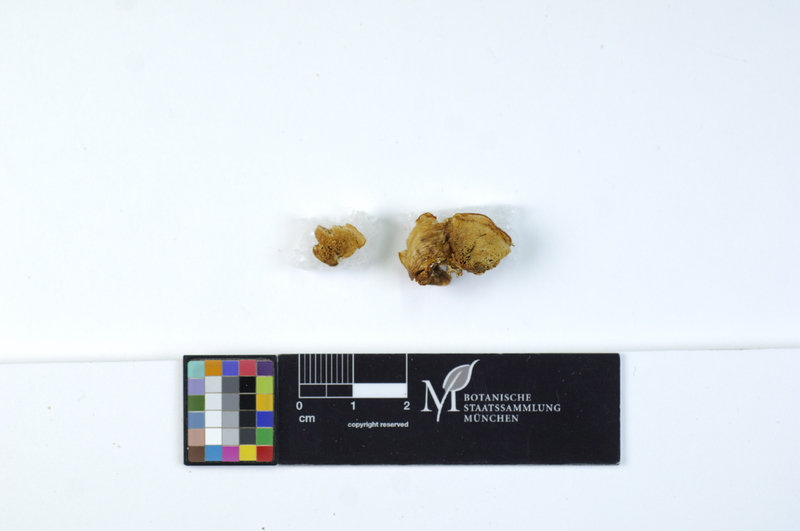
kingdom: Plantae
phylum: Tracheophyta
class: Pinopsida
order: Pinales
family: Pinaceae
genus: Picea
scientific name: Picea
